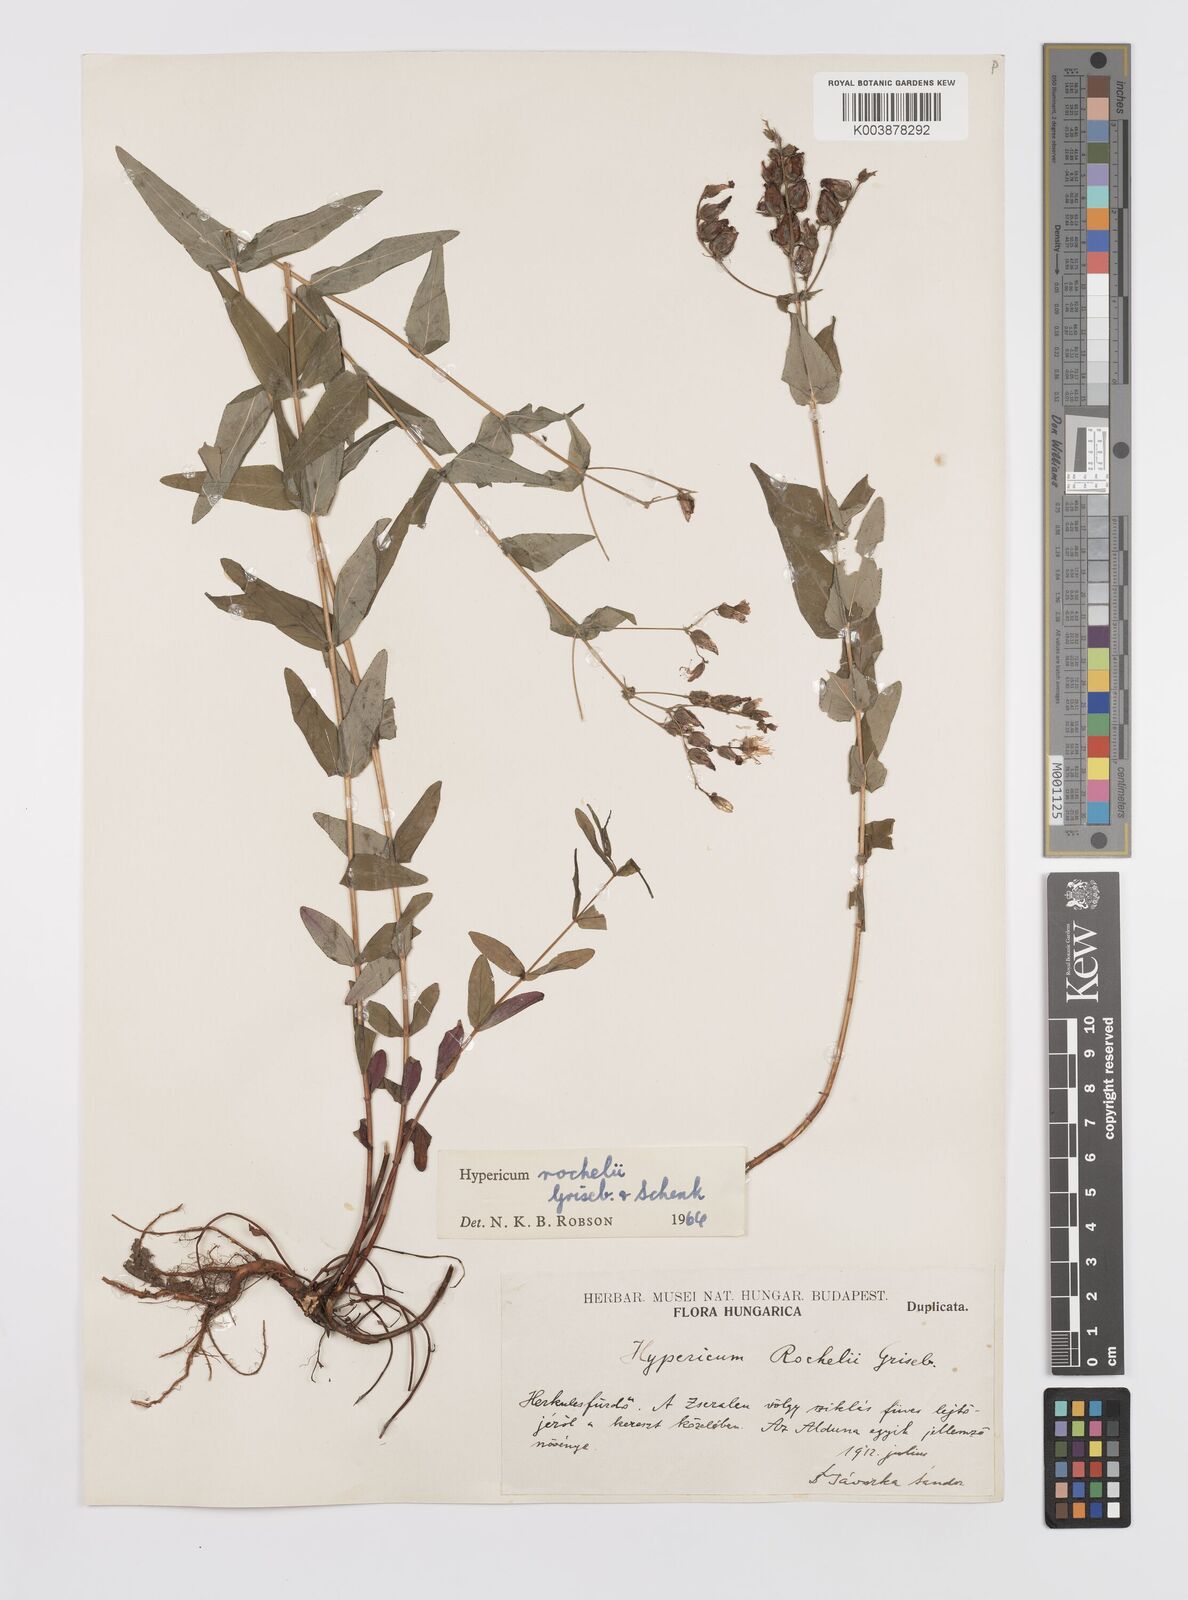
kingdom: Plantae
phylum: Tracheophyta
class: Magnoliopsida
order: Malpighiales
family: Hypericaceae
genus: Hypericum
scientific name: Hypericum rochelii
